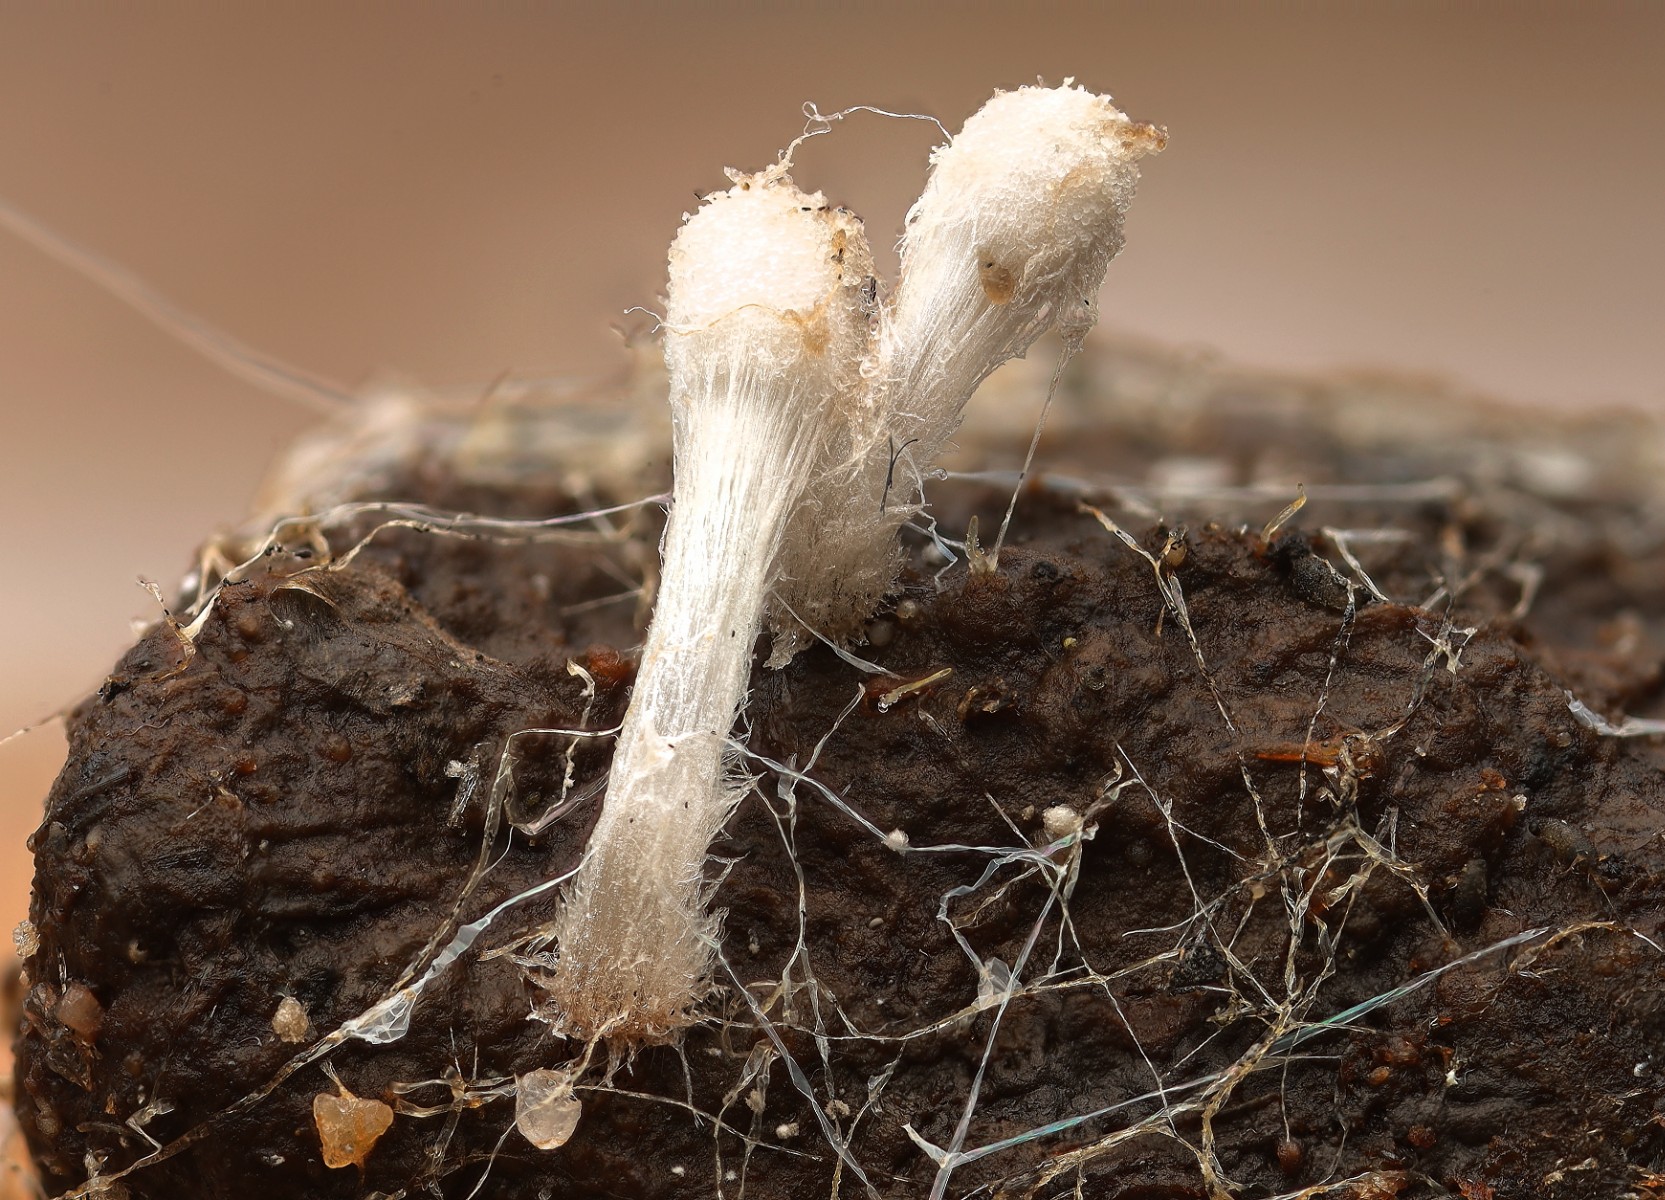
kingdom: Fungi
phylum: Basidiomycota
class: Agaricomycetes
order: Agaricales
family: Psathyrellaceae
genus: Coprinopsis
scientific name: Coprinopsis stercorea
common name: pjusket blækhat
